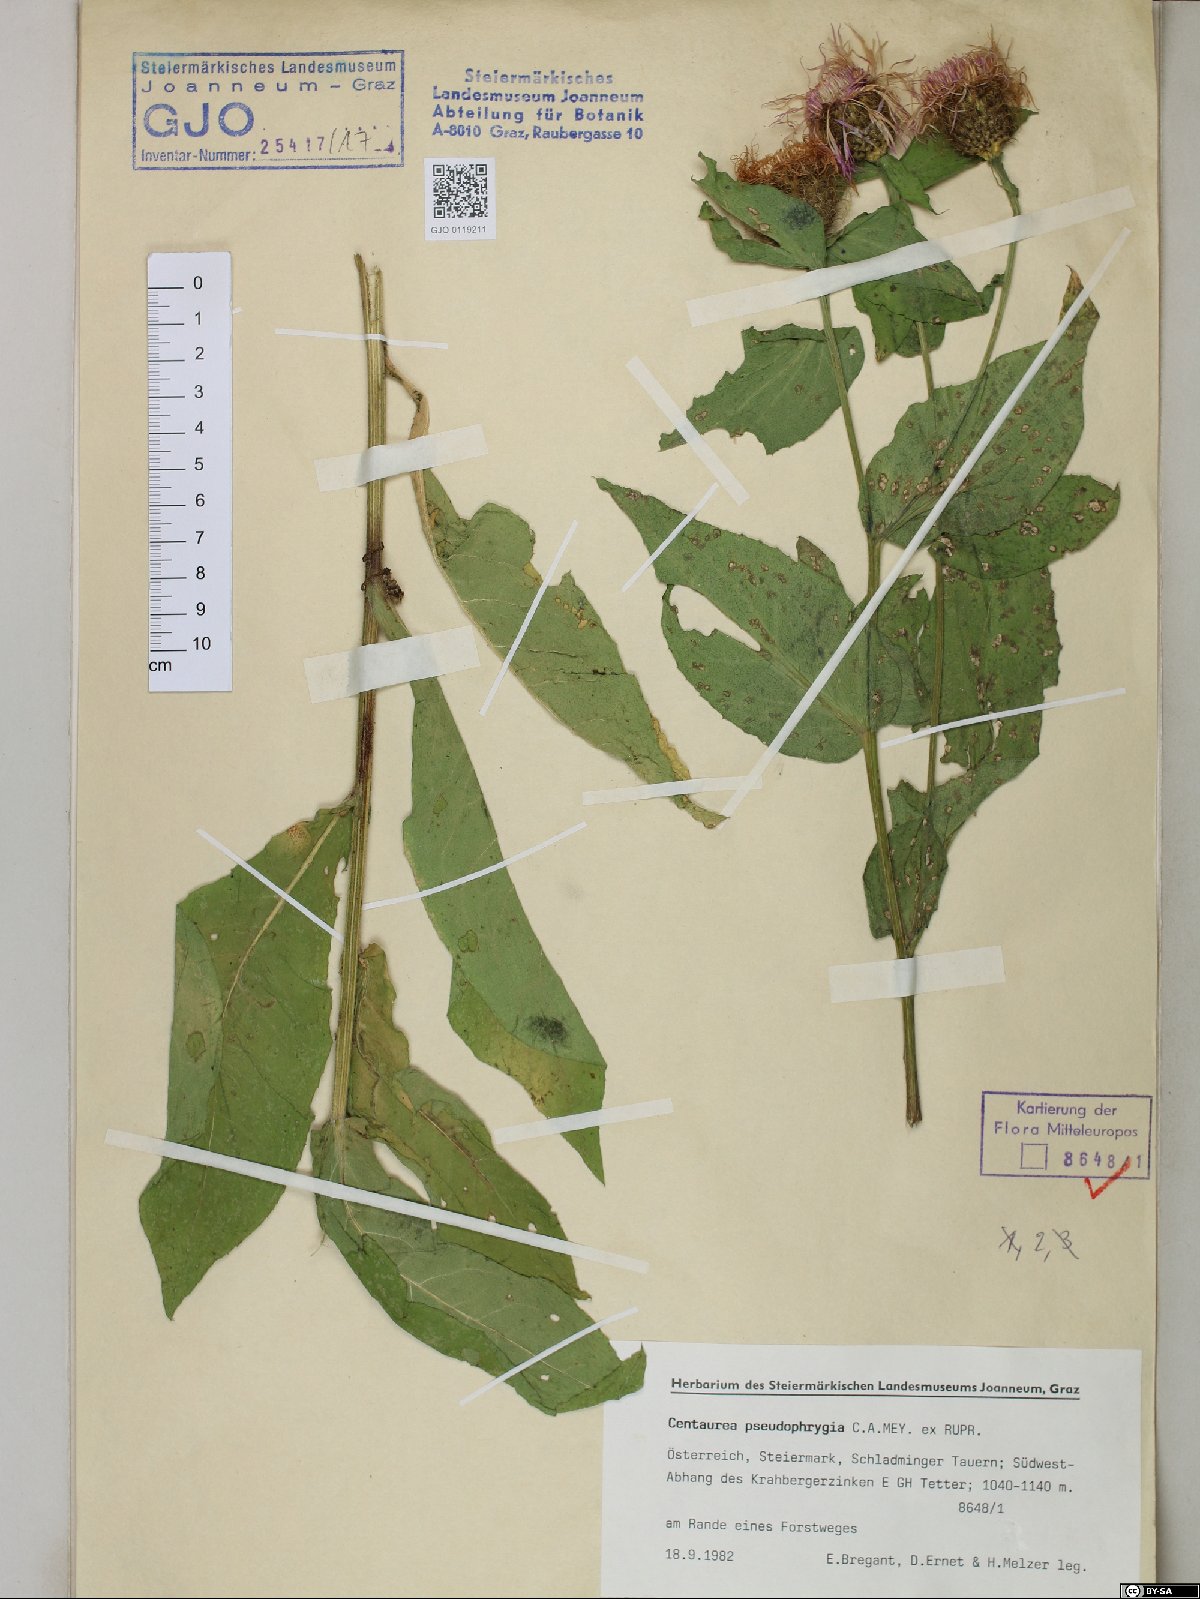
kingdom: Plantae
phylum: Tracheophyta
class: Magnoliopsida
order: Asterales
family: Asteraceae
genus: Centaurea
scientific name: Centaurea pseudophrygia
